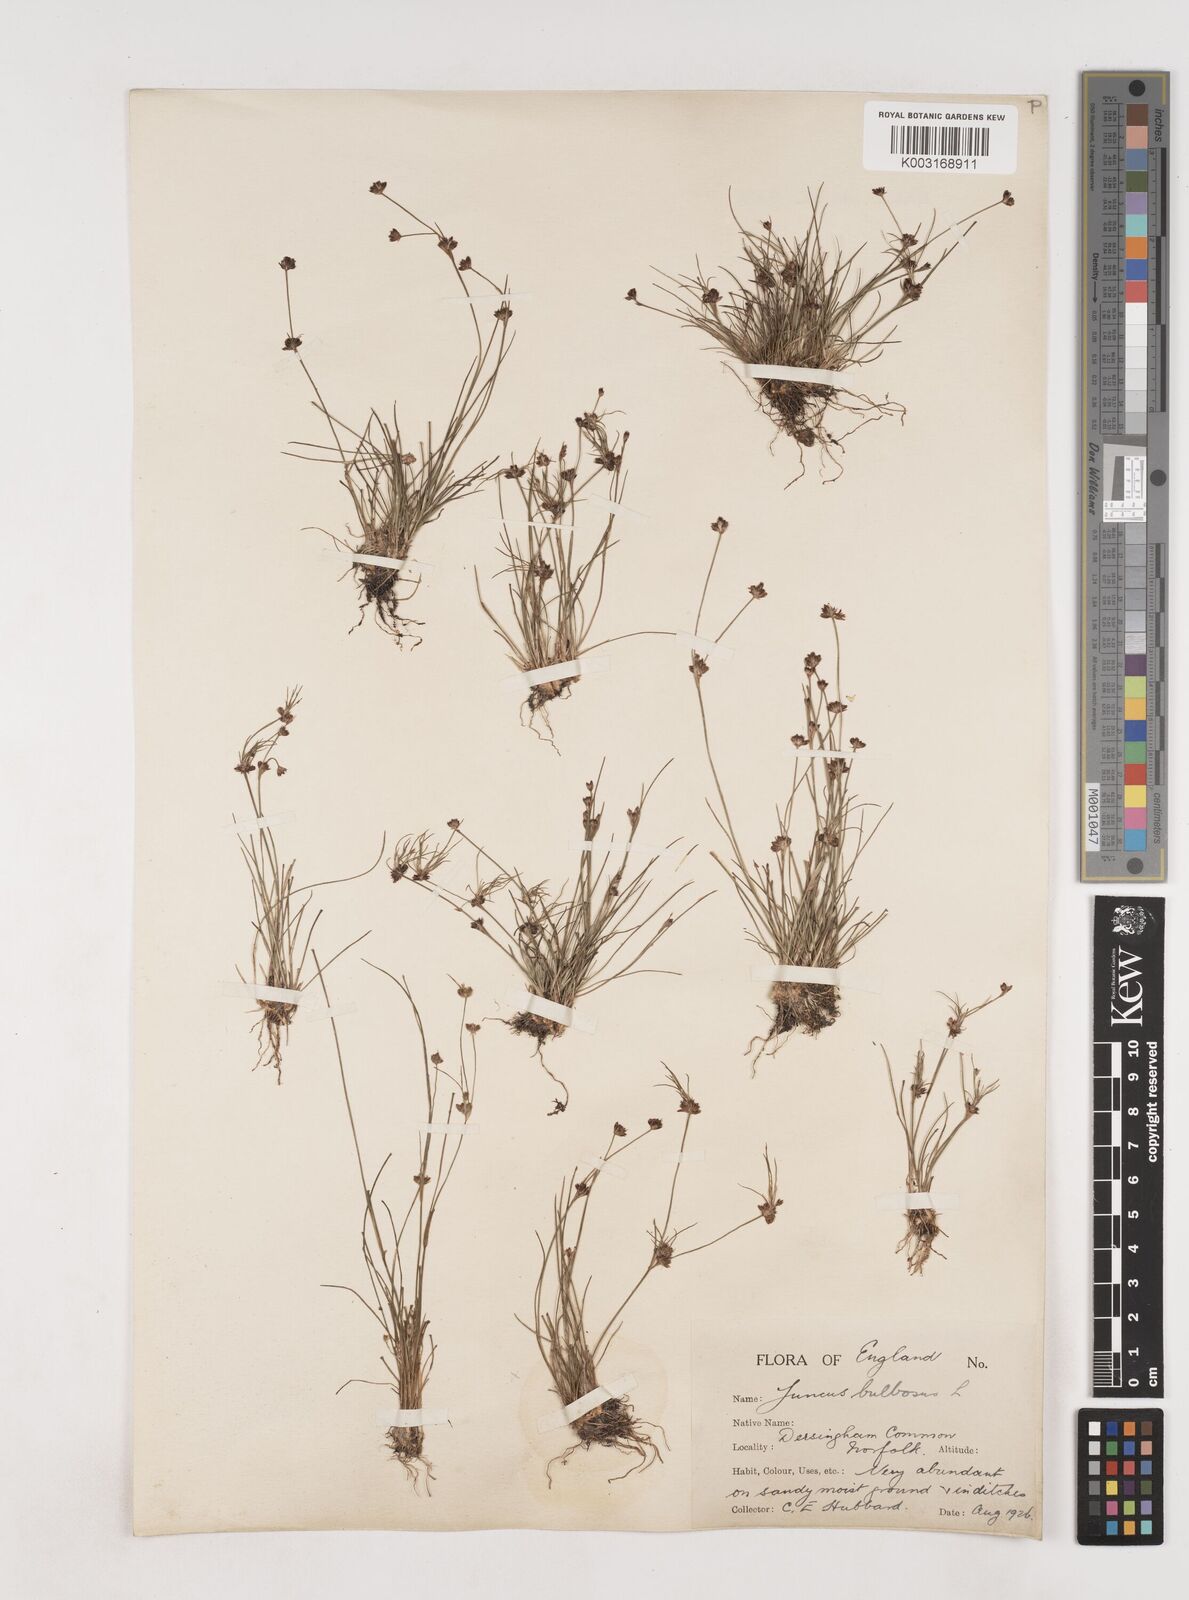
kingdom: Plantae
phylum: Tracheophyta
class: Liliopsida
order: Poales
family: Juncaceae
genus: Juncus
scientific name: Juncus bulbosus
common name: Bulbous rush
